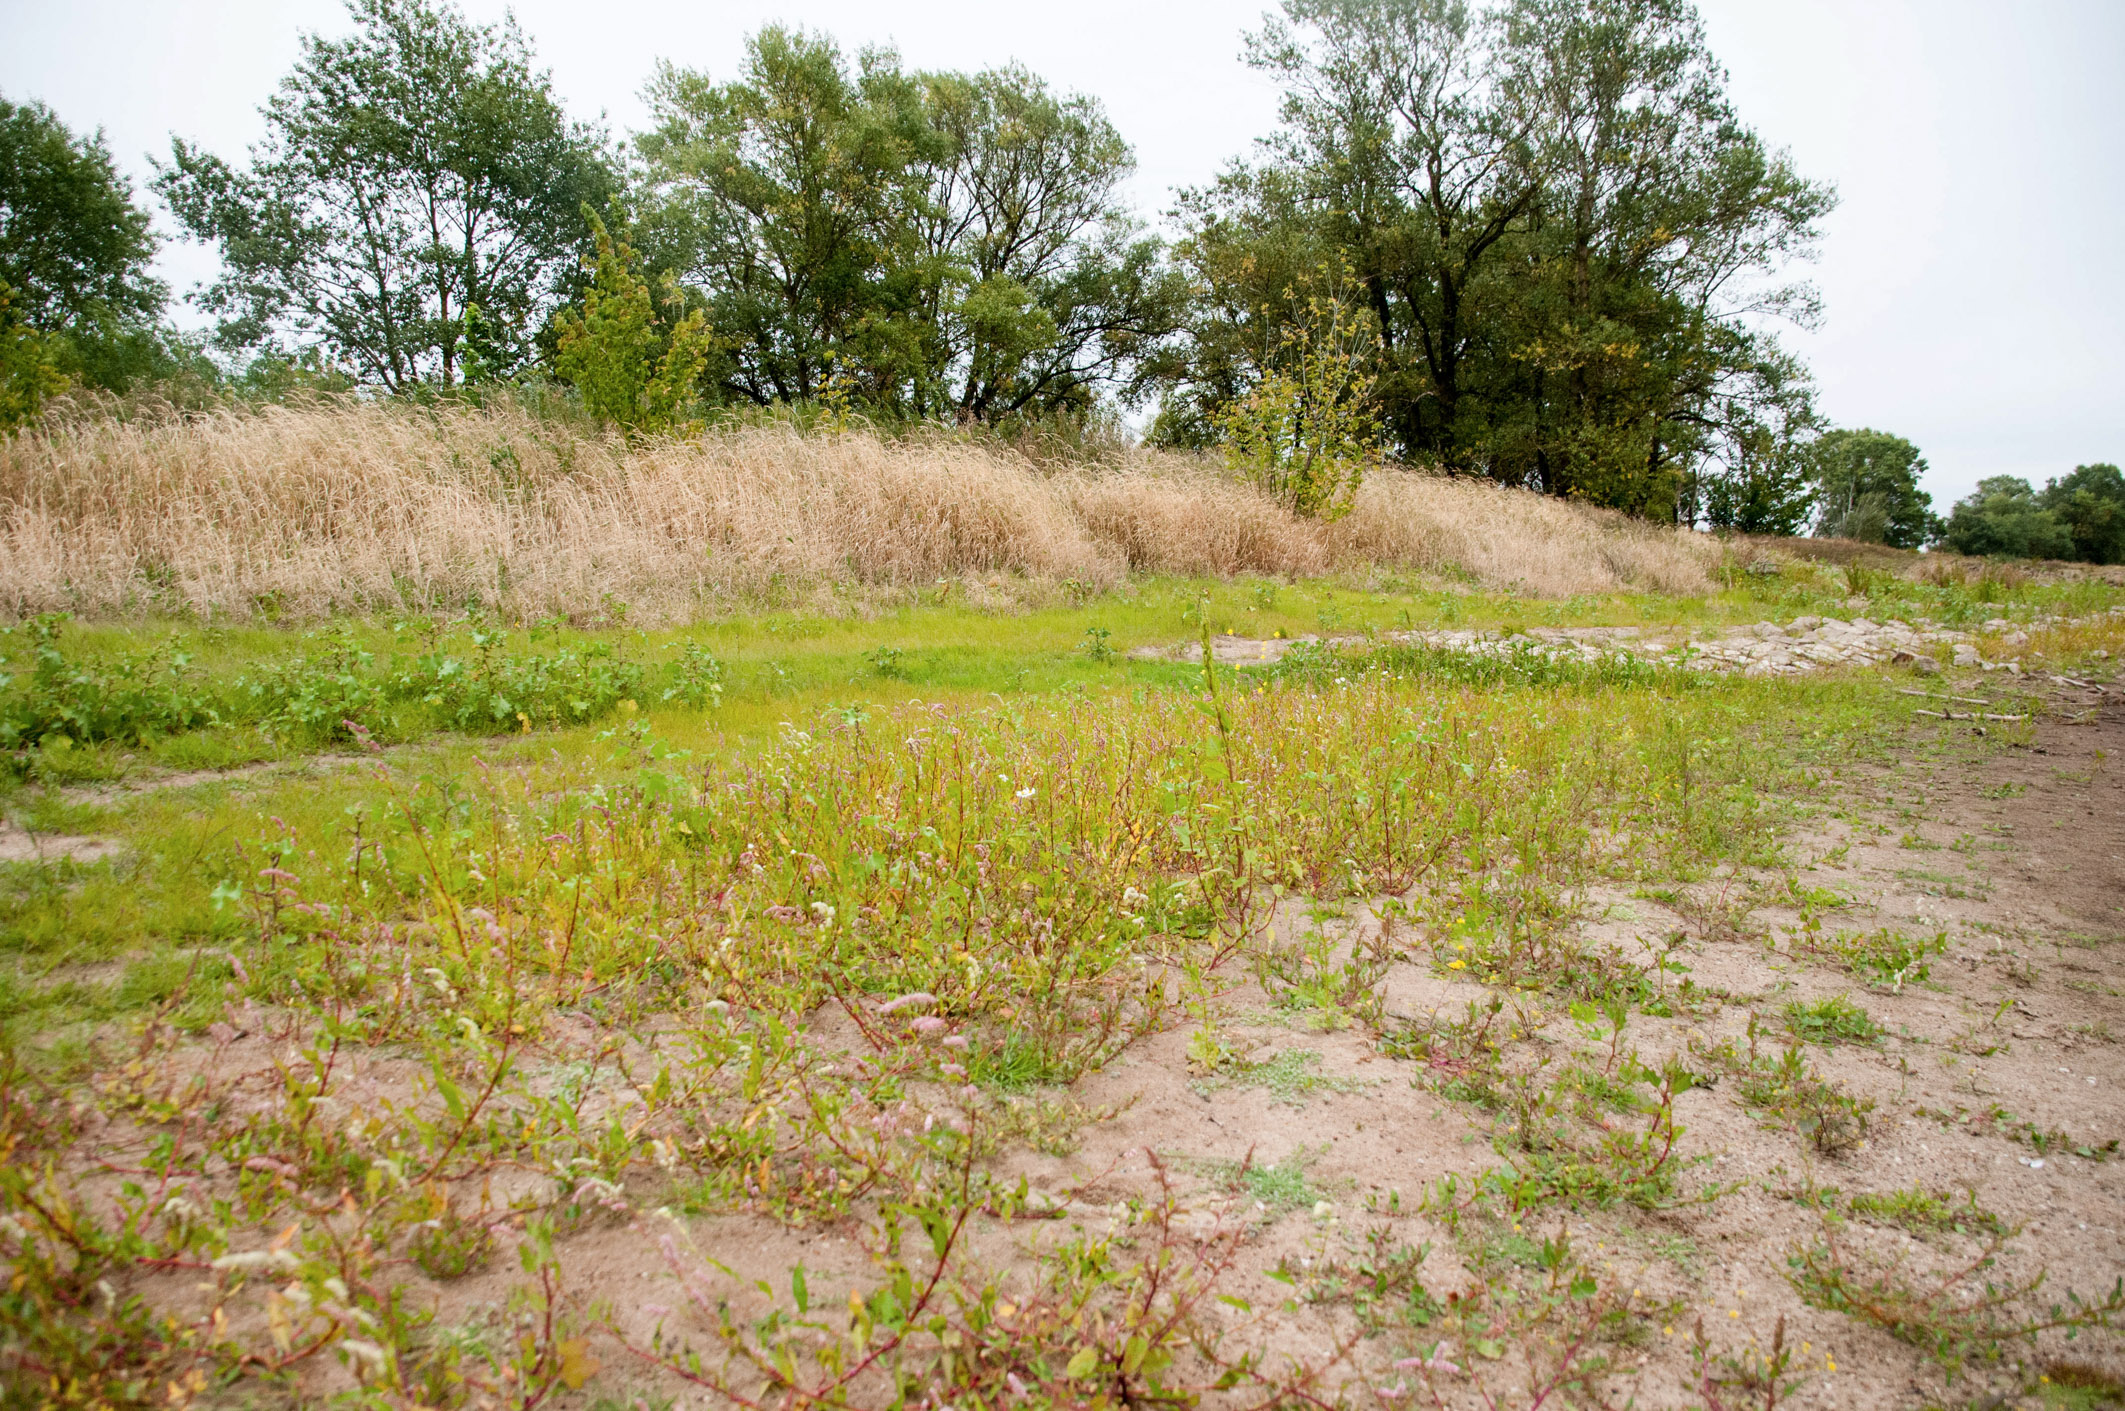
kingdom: Plantae
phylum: Tracheophyta
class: Magnoliopsida
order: Caryophyllales
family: Polygonaceae
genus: Persicaria
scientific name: Persicaria lapathifolia
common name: Curlytop knotweed
